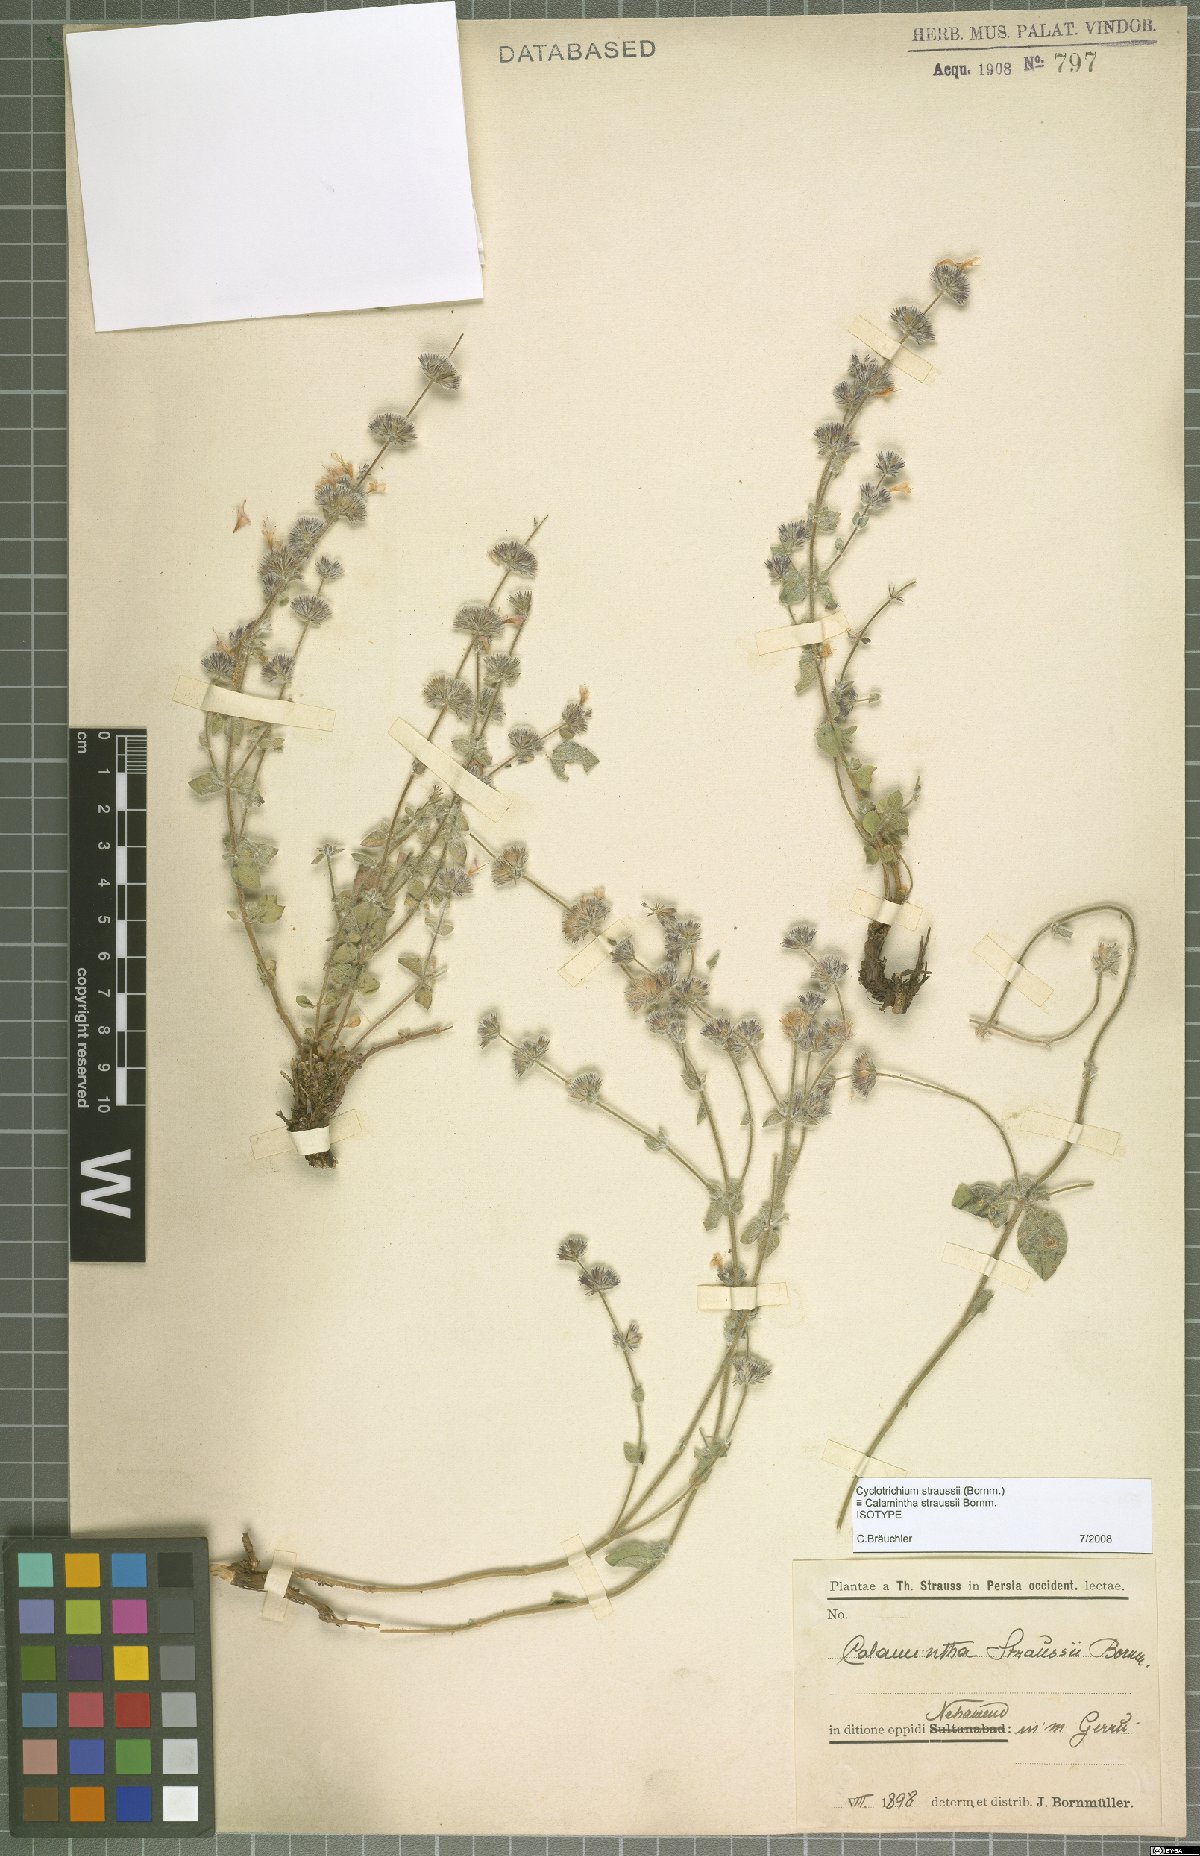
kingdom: Plantae
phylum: Tracheophyta
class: Magnoliopsida
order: Lamiales
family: Lamiaceae
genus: Cyclotrichium
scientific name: Cyclotrichium straussii
